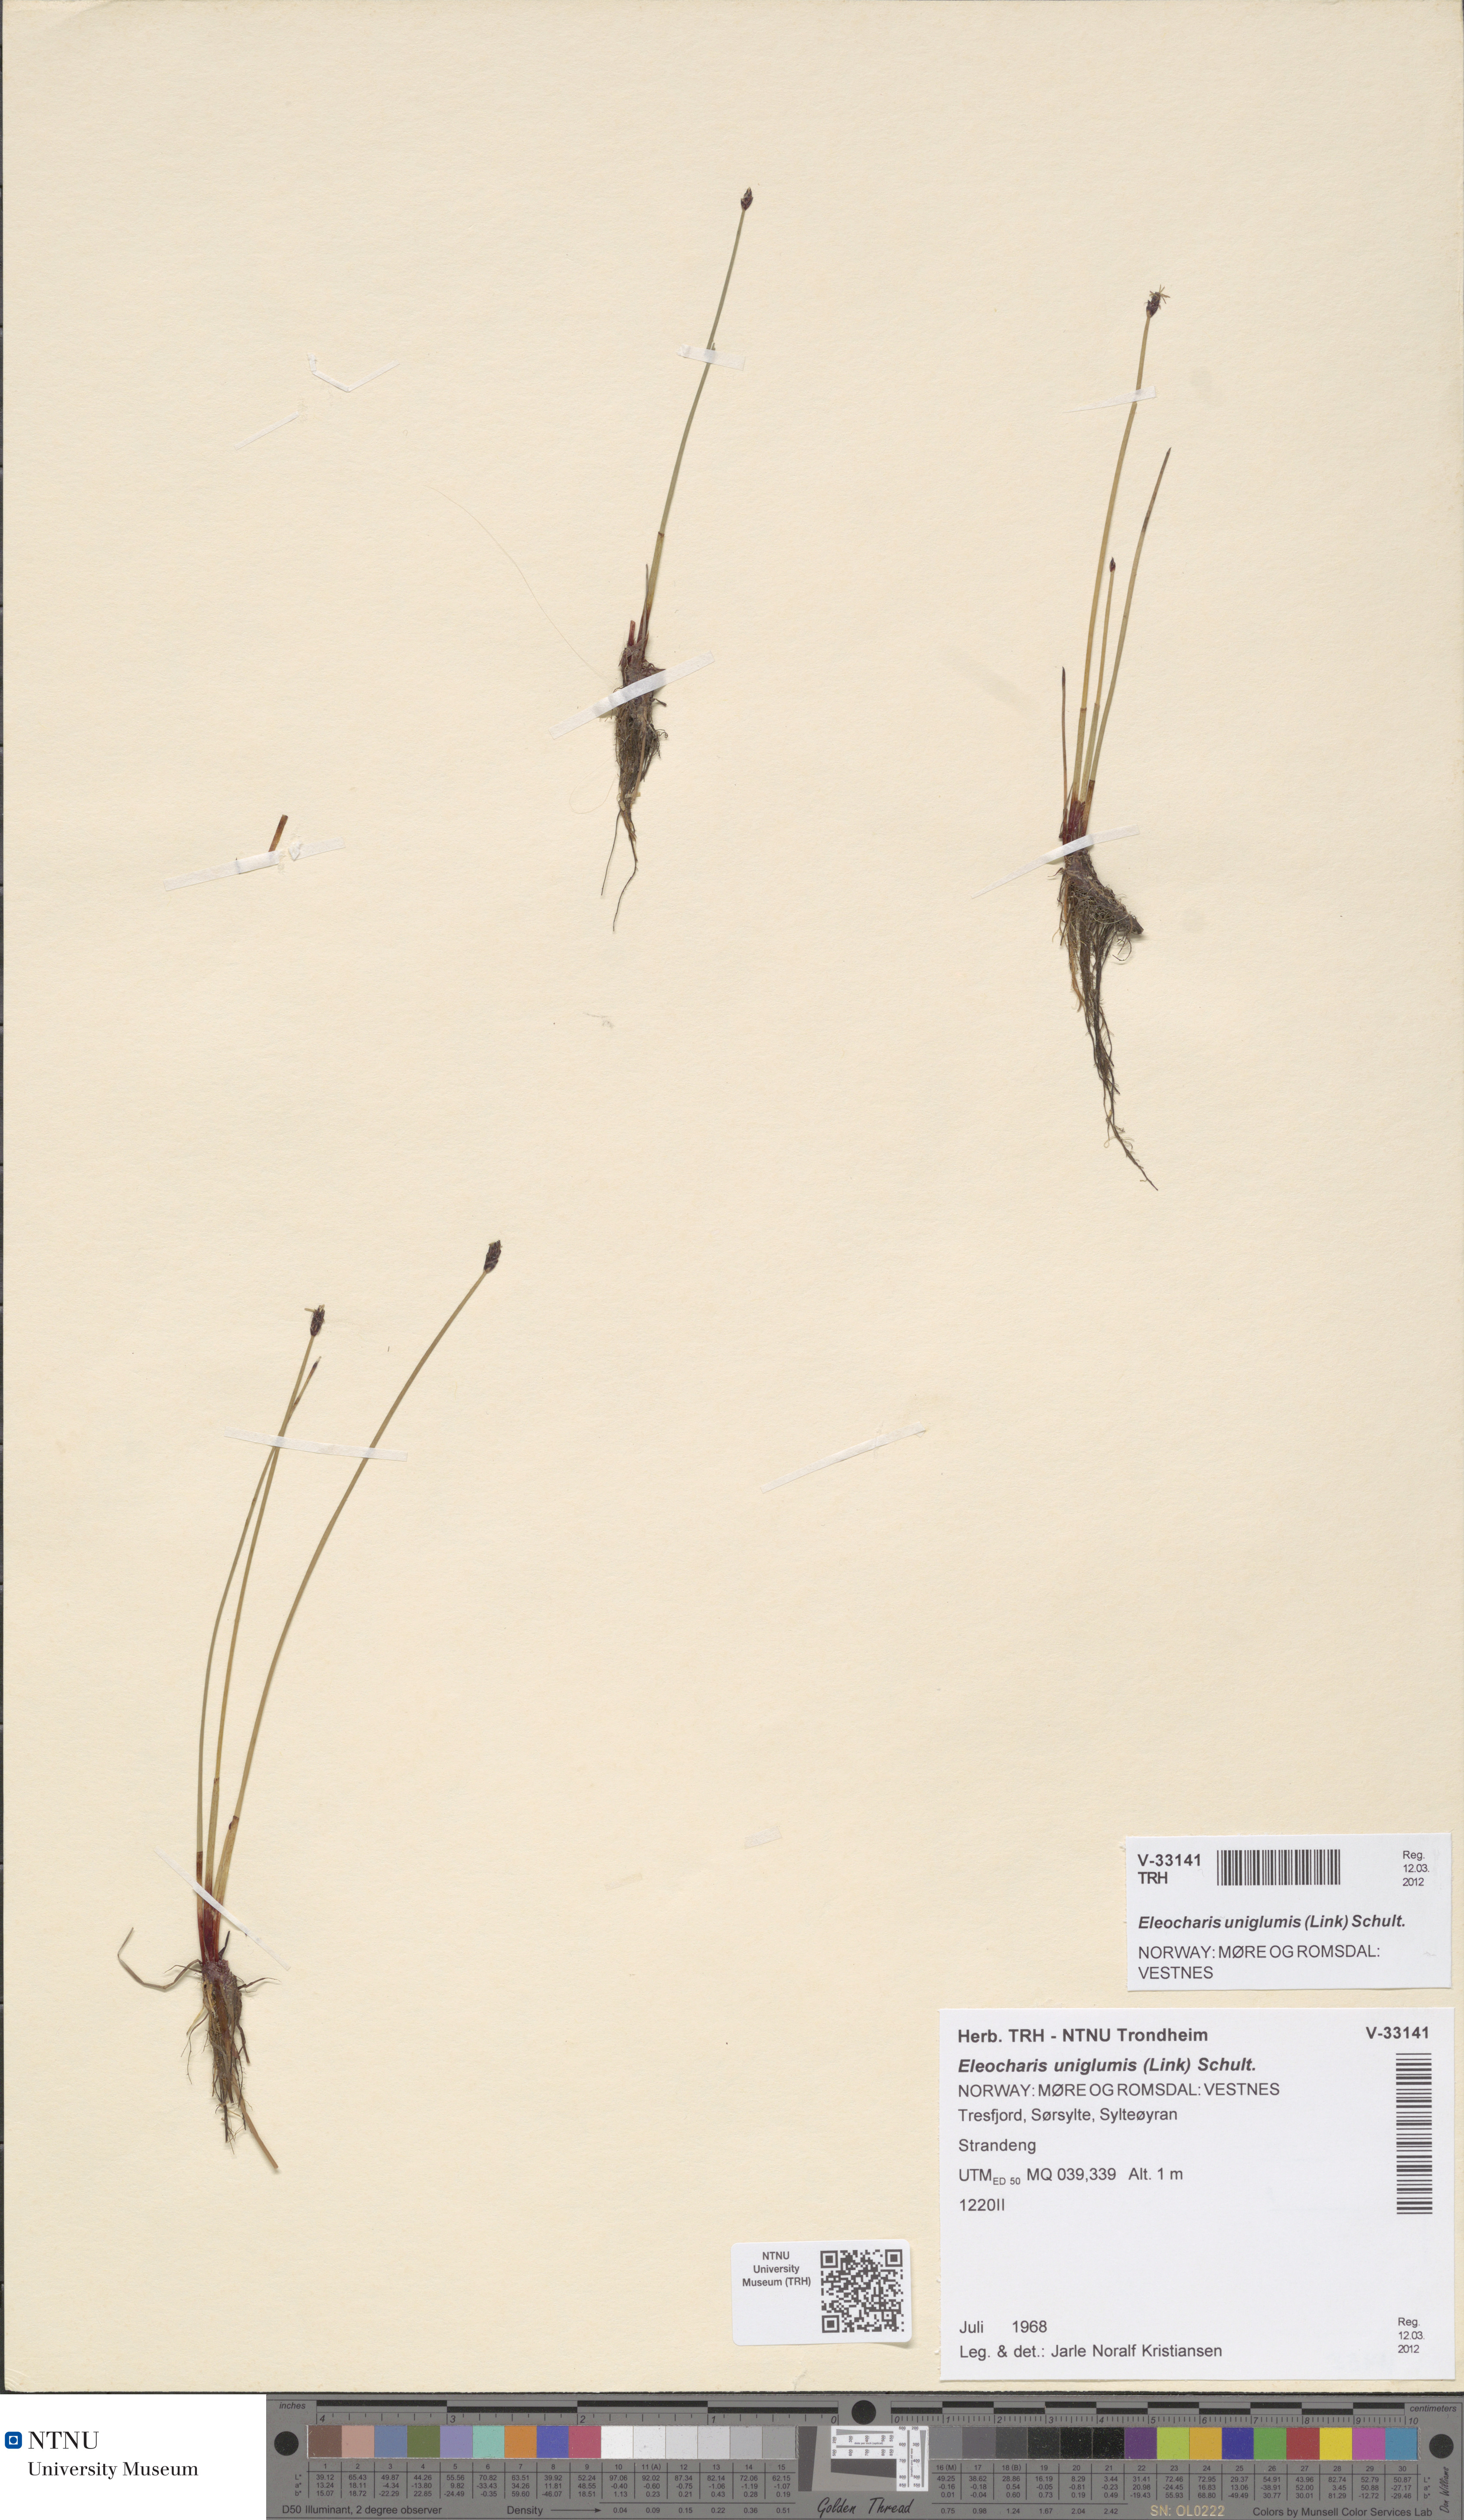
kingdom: Plantae
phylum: Tracheophyta
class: Liliopsida
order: Poales
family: Cyperaceae
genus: Eleocharis
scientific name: Eleocharis uniglumis
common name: Slender spike-rush
